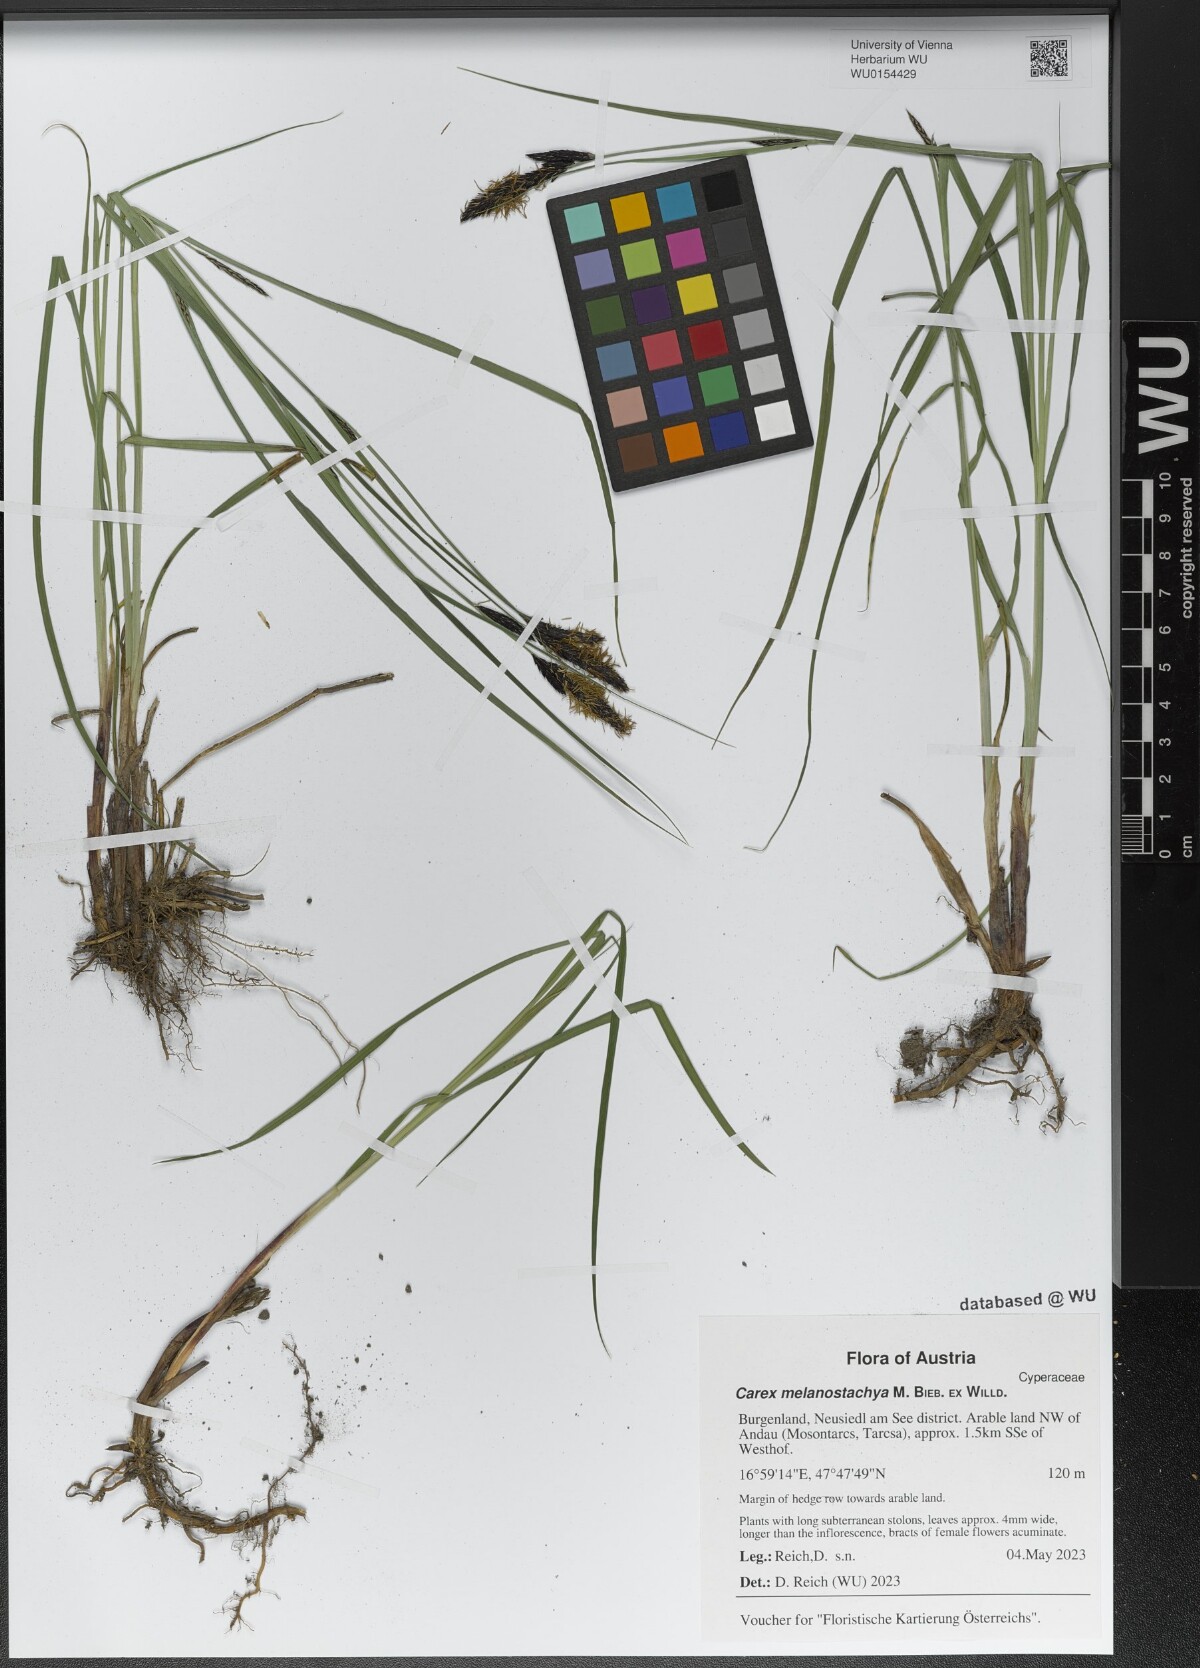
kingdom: Plantae
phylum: Tracheophyta
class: Liliopsida
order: Poales
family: Cyperaceae
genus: Carex
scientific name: Carex melanostachya
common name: Black-spiked sedge
